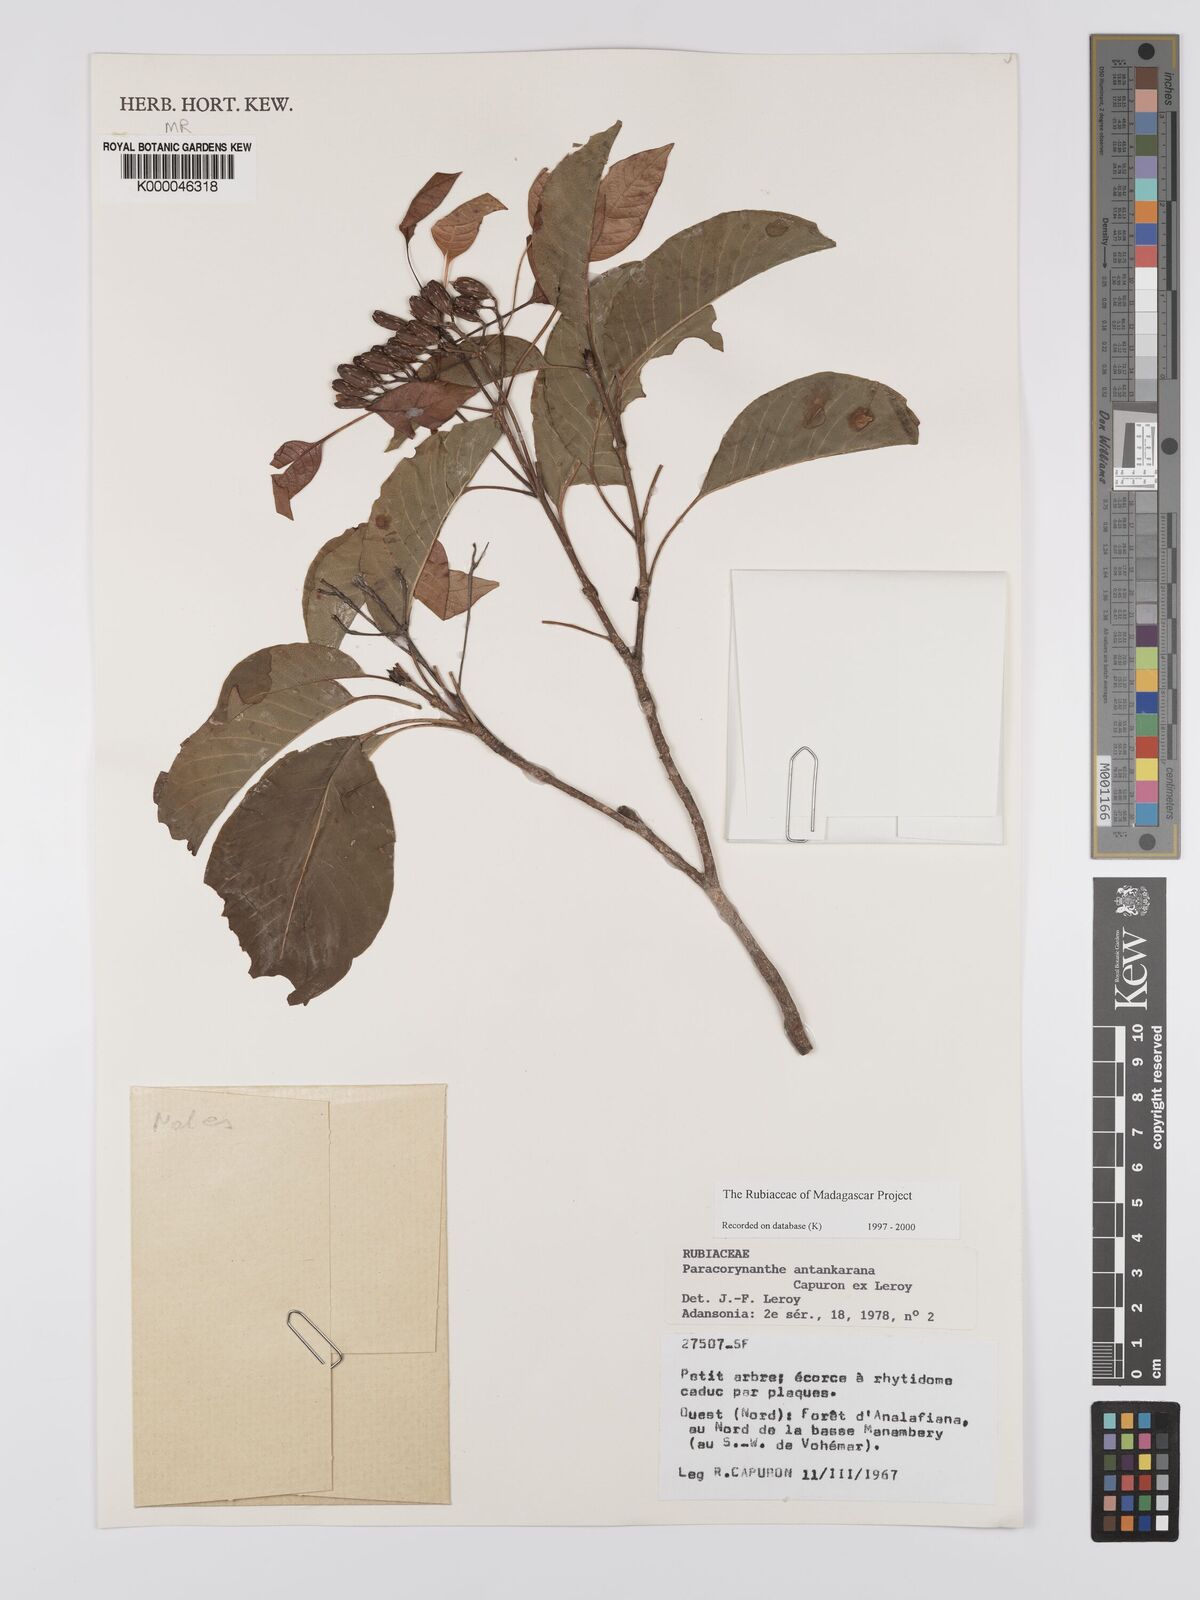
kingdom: Plantae
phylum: Tracheophyta
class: Magnoliopsida
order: Gentianales
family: Rubiaceae
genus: Paracorynanthe
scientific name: Paracorynanthe antankarana
